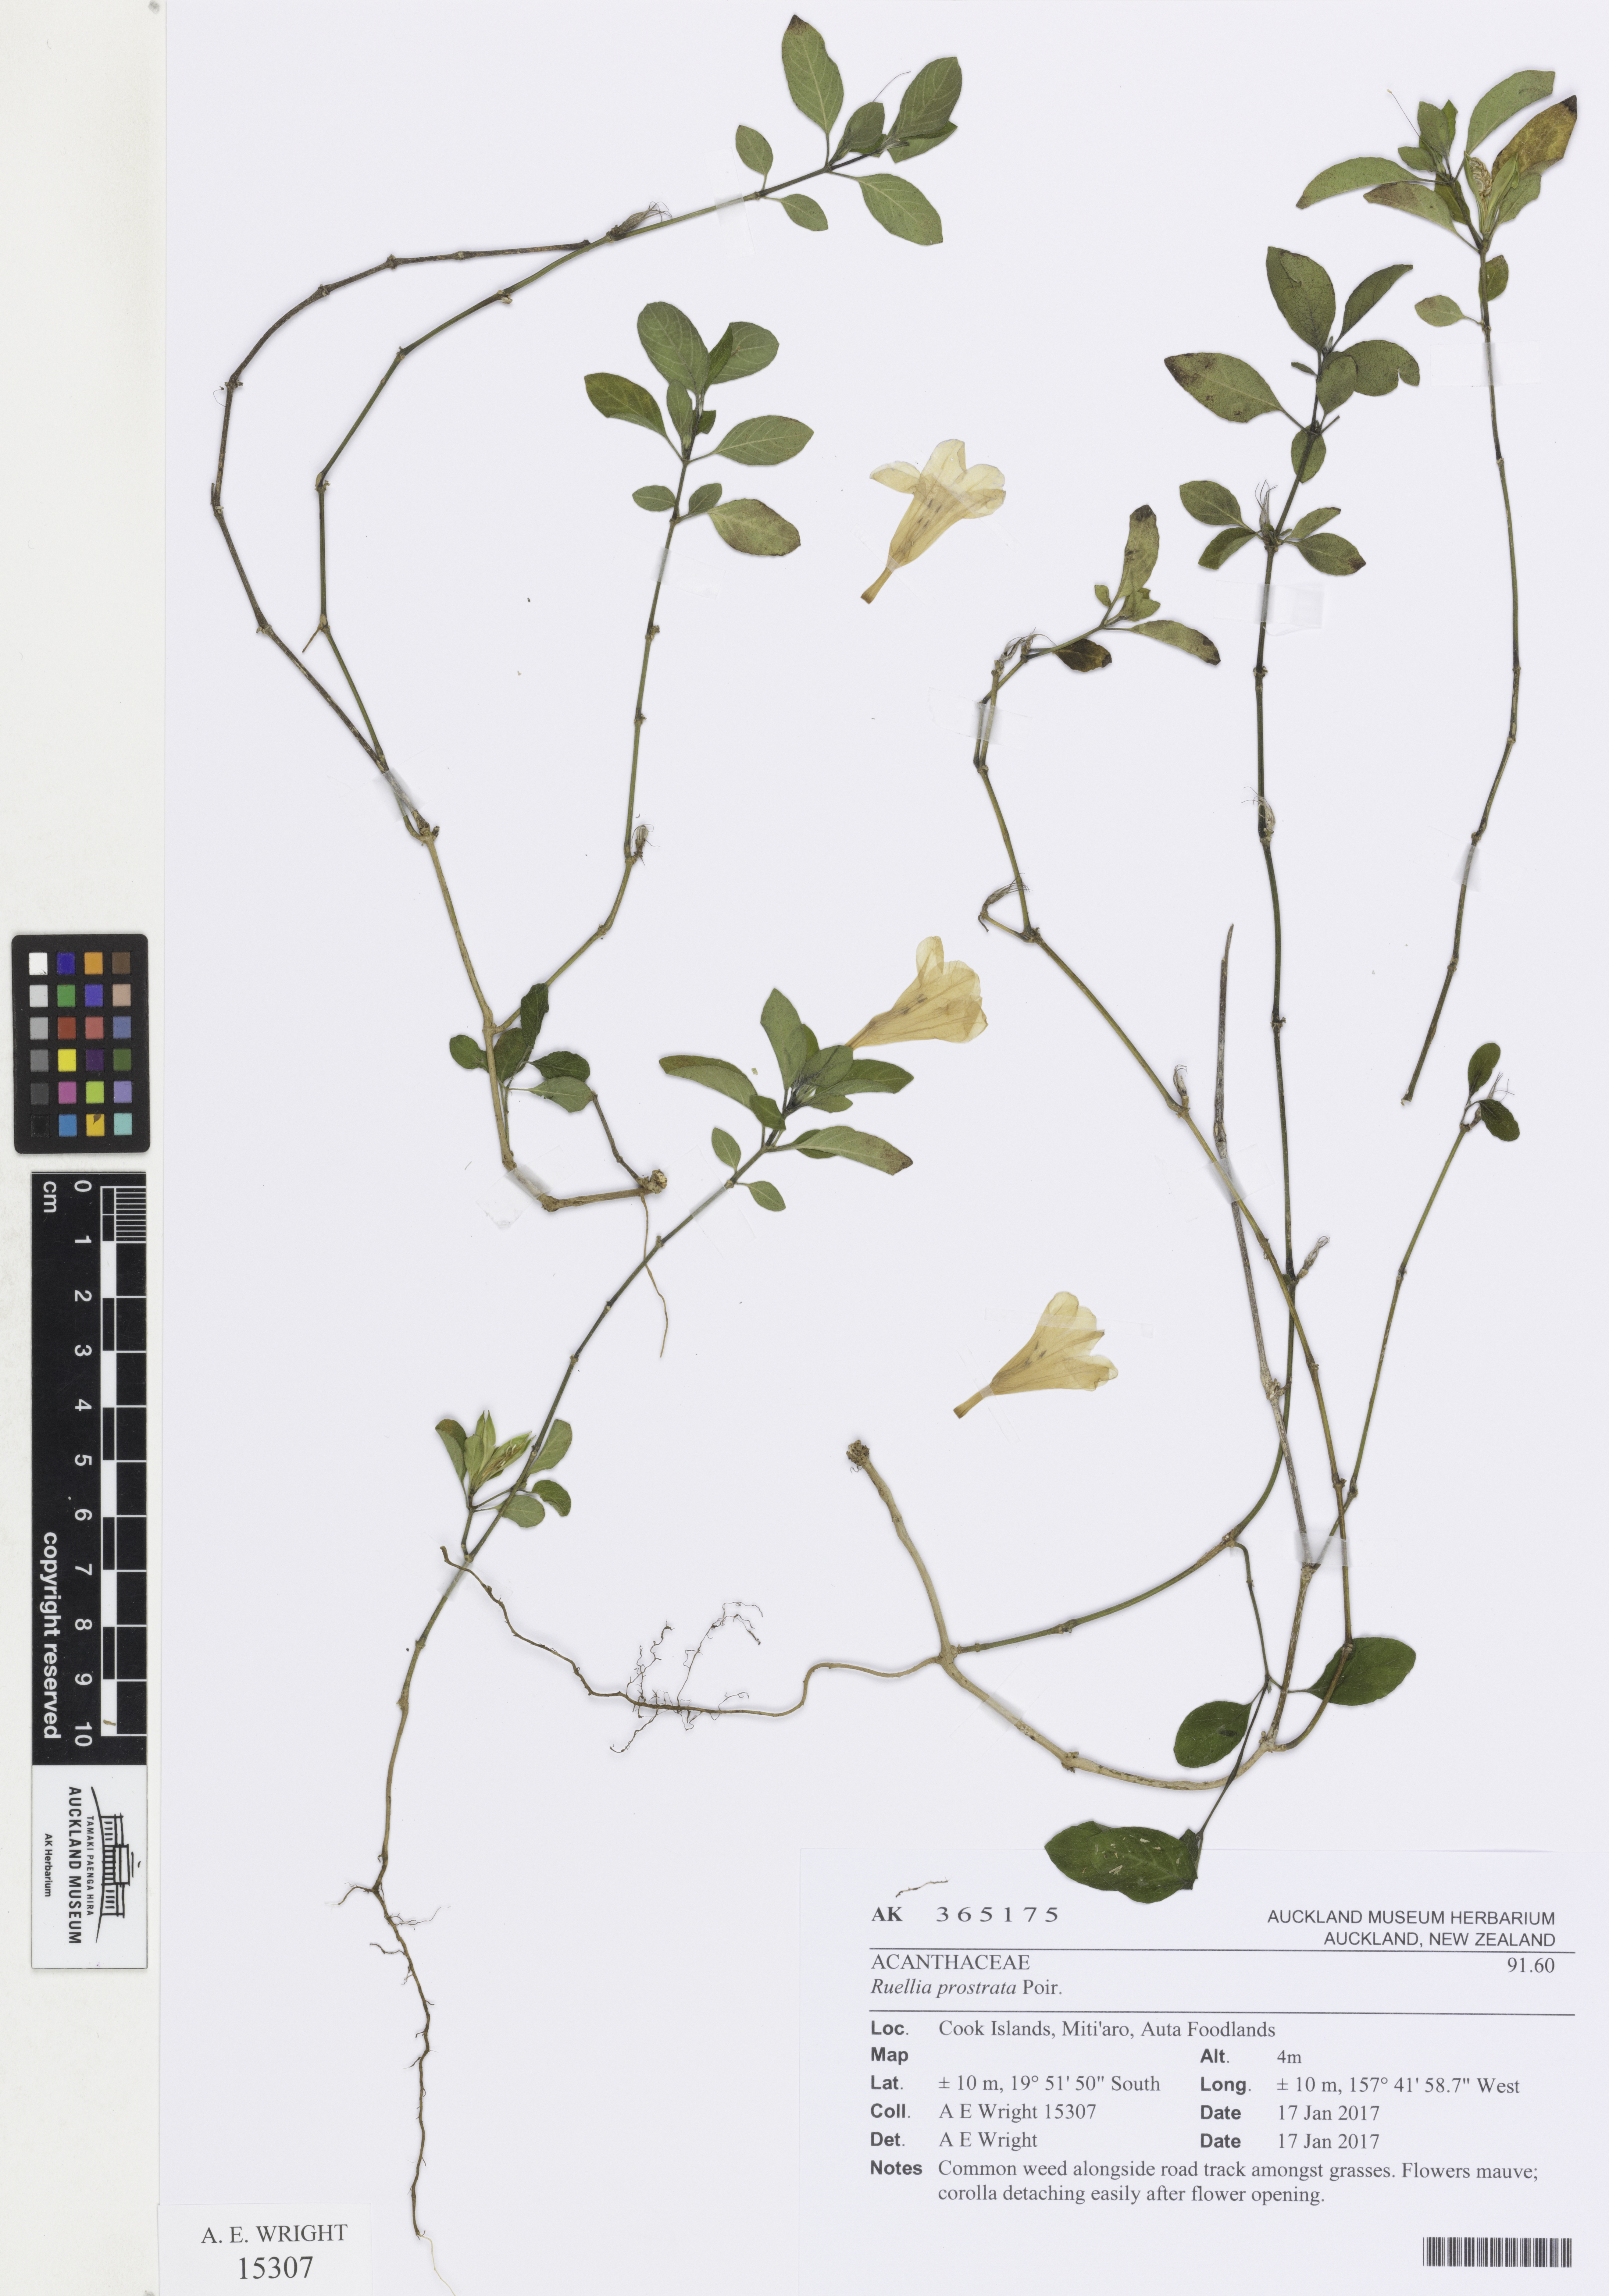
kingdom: Plantae
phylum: Tracheophyta
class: Magnoliopsida
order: Lamiales
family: Acanthaceae
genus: Ruellia
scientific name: Ruellia prostrata
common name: Prostrate wild petunia
